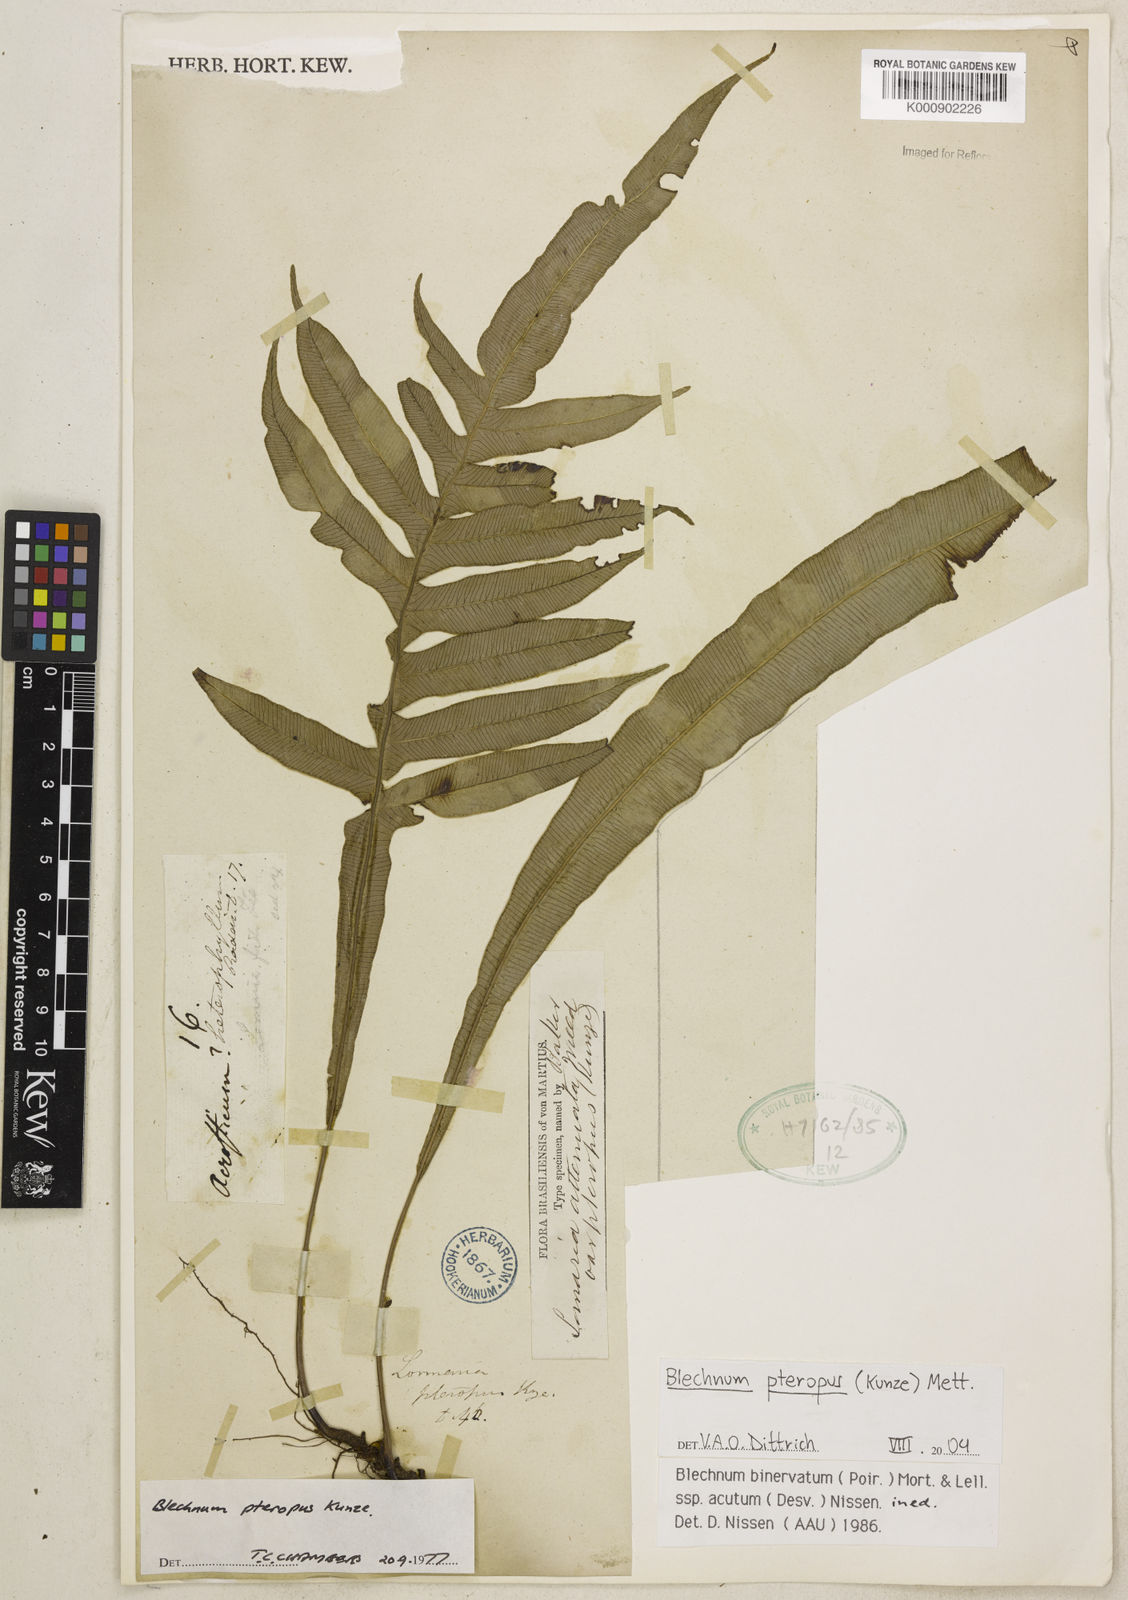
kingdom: Plantae
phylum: Tracheophyta
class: Polypodiopsida
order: Polypodiales
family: Blechnaceae
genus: Lomaridium
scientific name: Lomaridium pteropus
